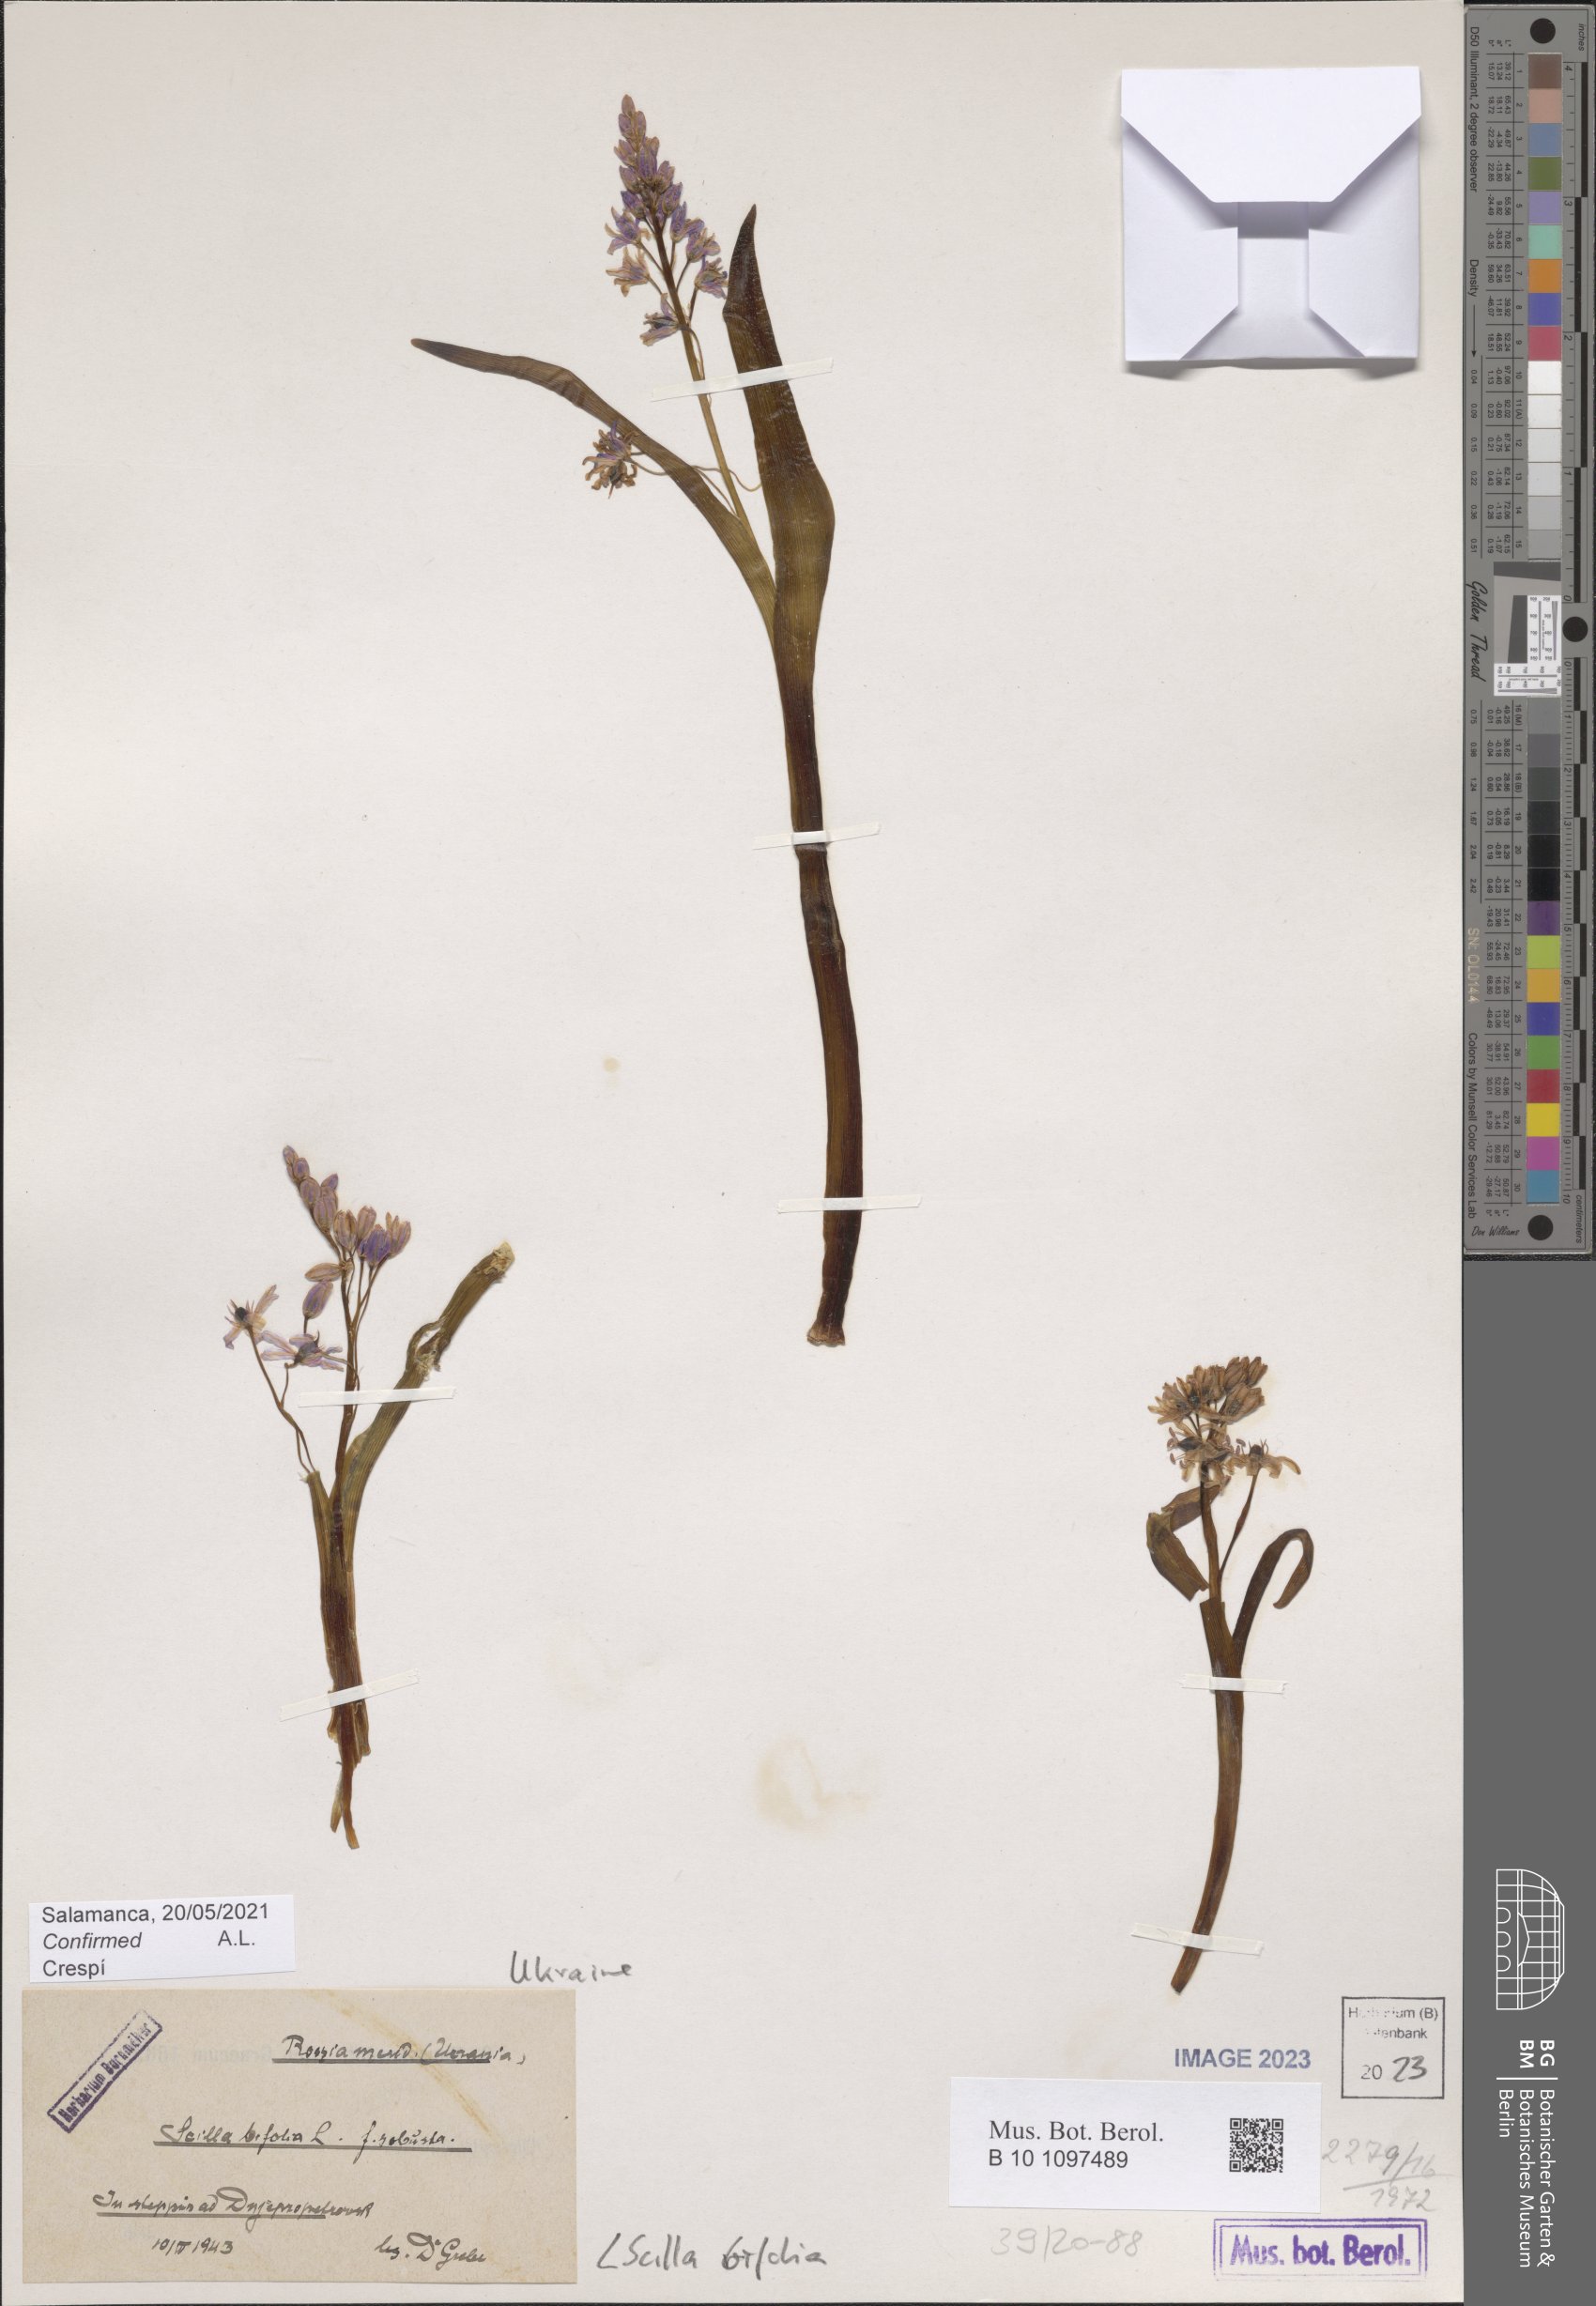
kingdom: Plantae
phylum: Tracheophyta
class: Liliopsida
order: Asparagales
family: Asparagaceae
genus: Scilla
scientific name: Scilla bifolia
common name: Alpine squill
